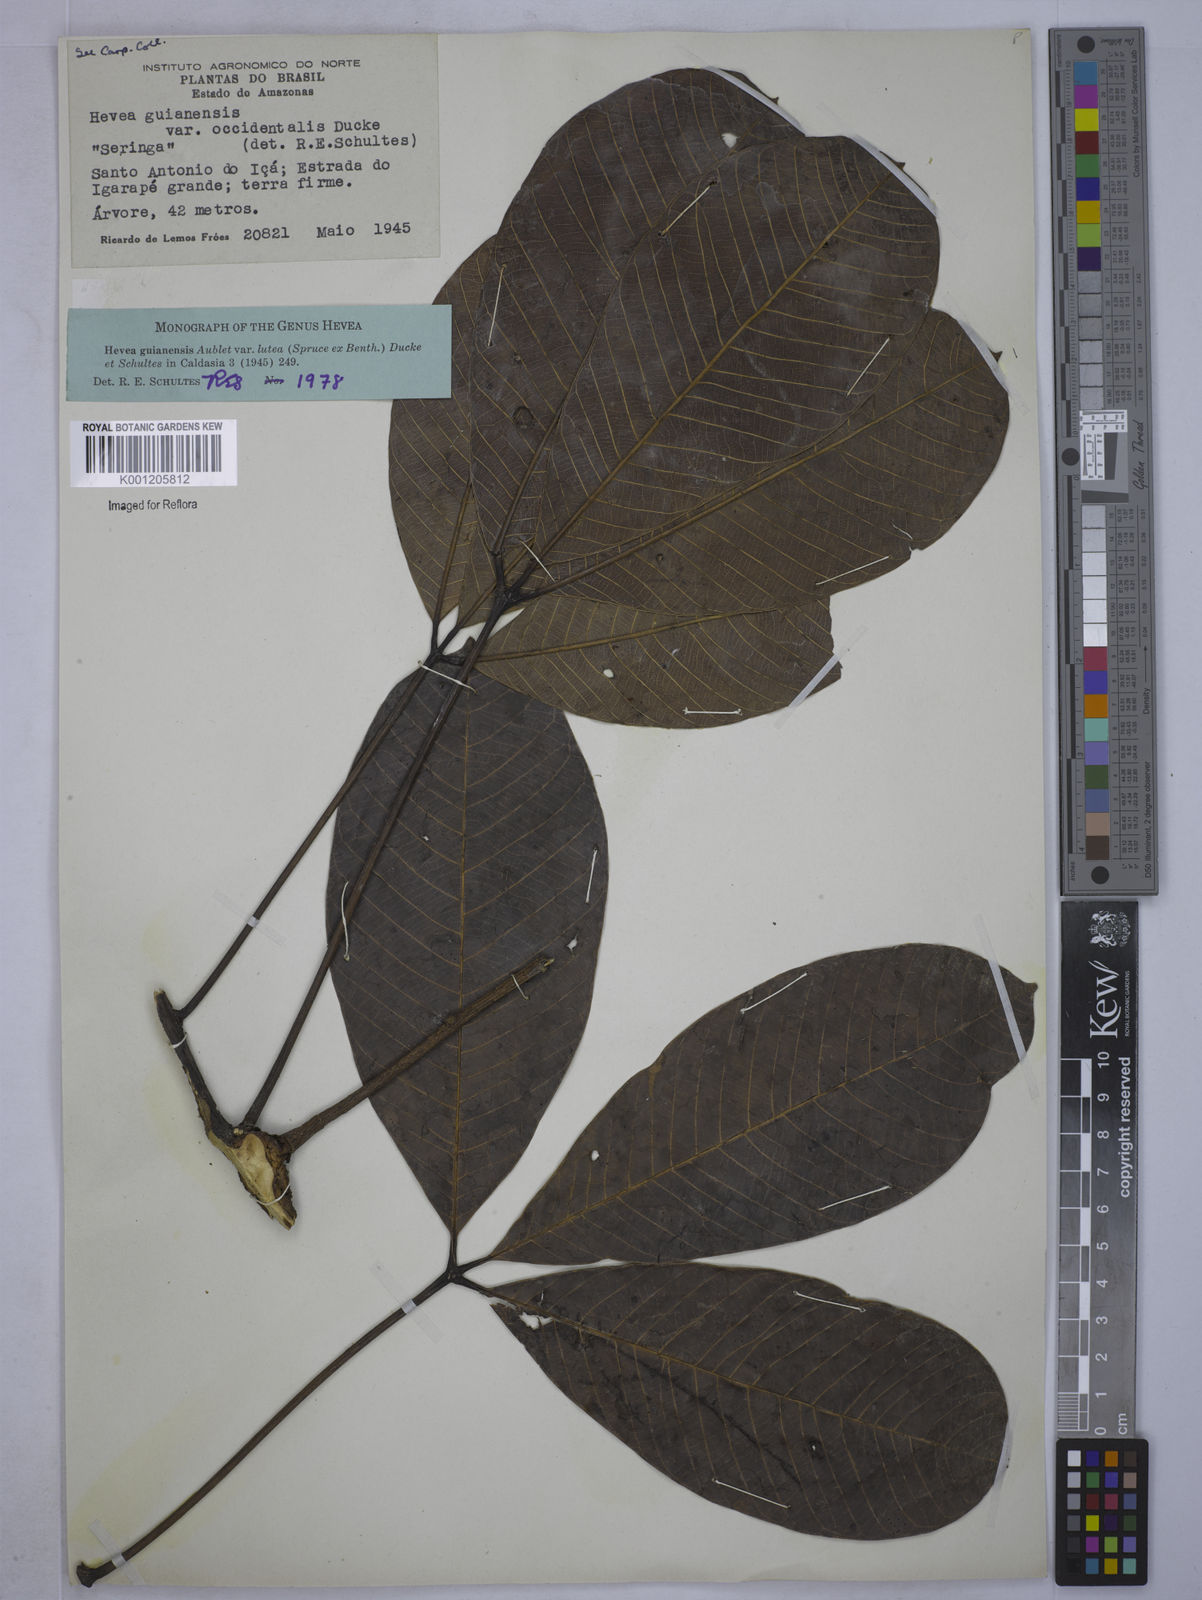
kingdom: Plantae
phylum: Tracheophyta
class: Magnoliopsida
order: Malpighiales
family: Euphorbiaceae
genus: Hevea
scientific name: Hevea guianensis
